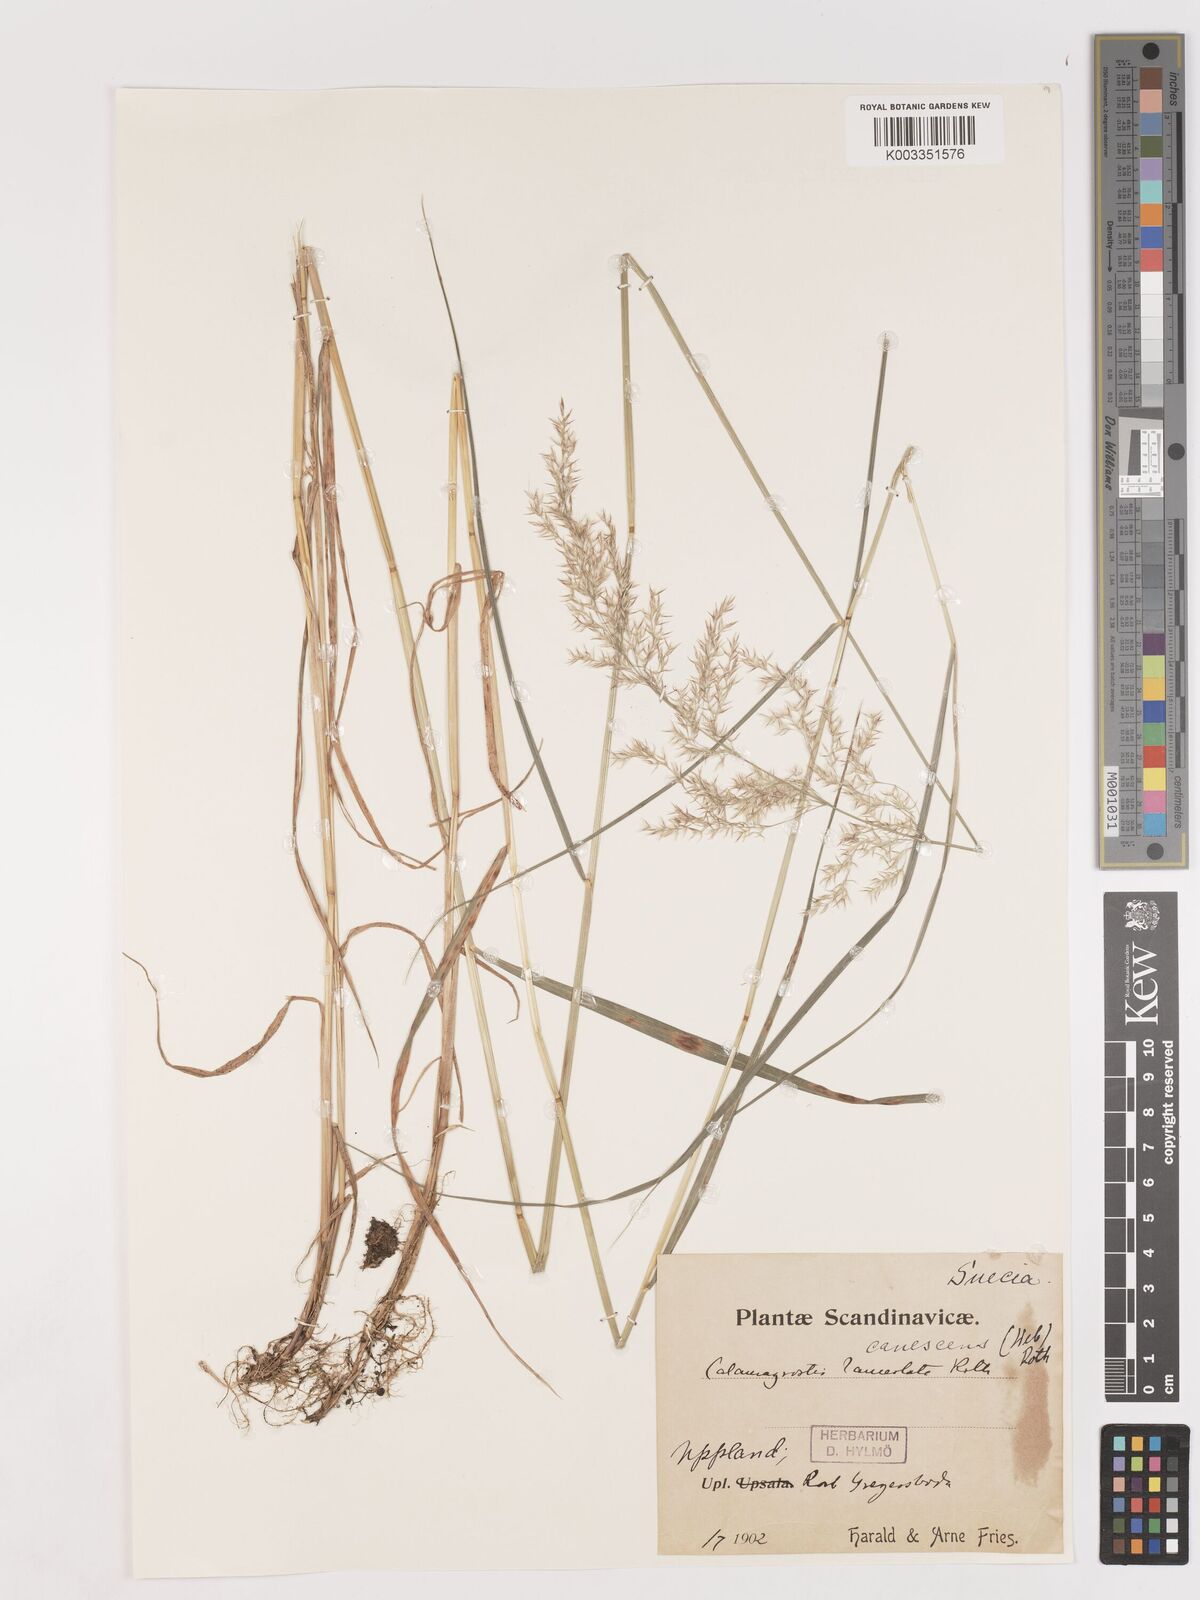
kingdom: Plantae
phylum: Tracheophyta
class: Liliopsida
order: Poales
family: Poaceae
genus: Calamagrostis
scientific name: Calamagrostis canescens
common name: Purple small-reed
